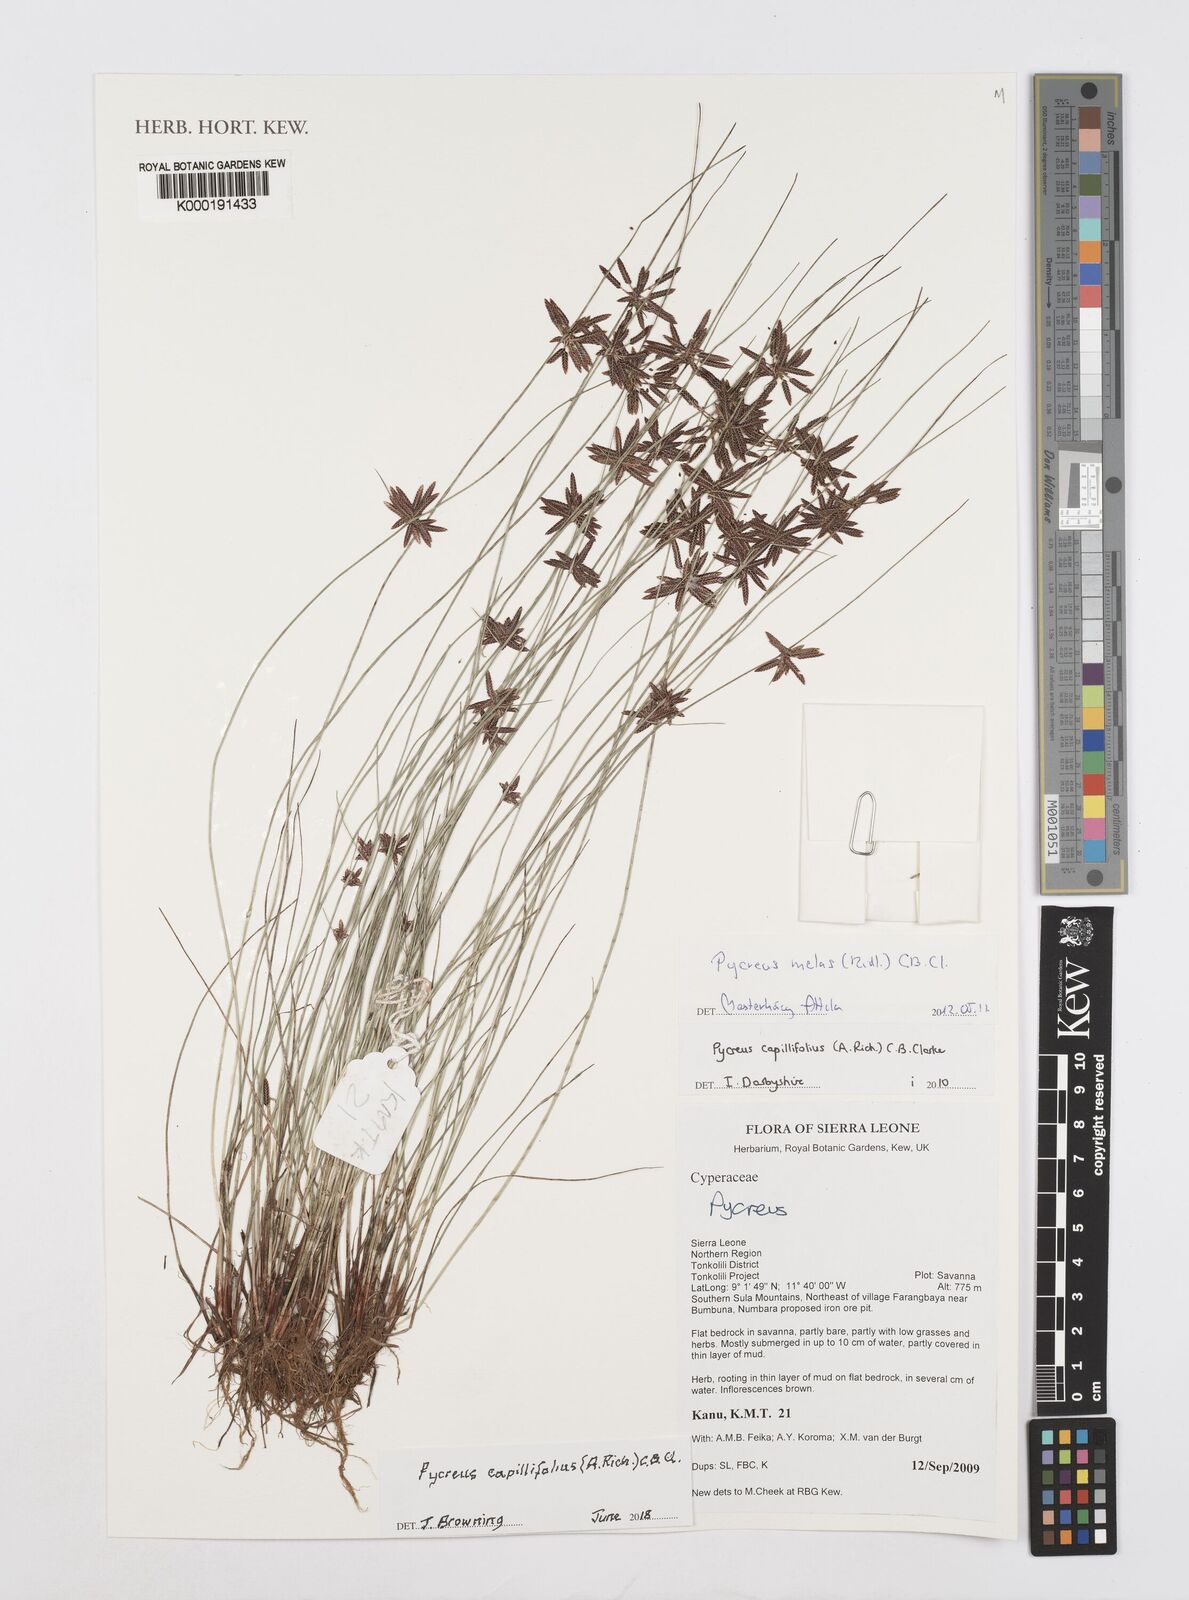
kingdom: Plantae
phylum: Tracheophyta
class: Liliopsida
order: Poales
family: Cyperaceae
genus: Cyperus
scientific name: Cyperus capillifolius
